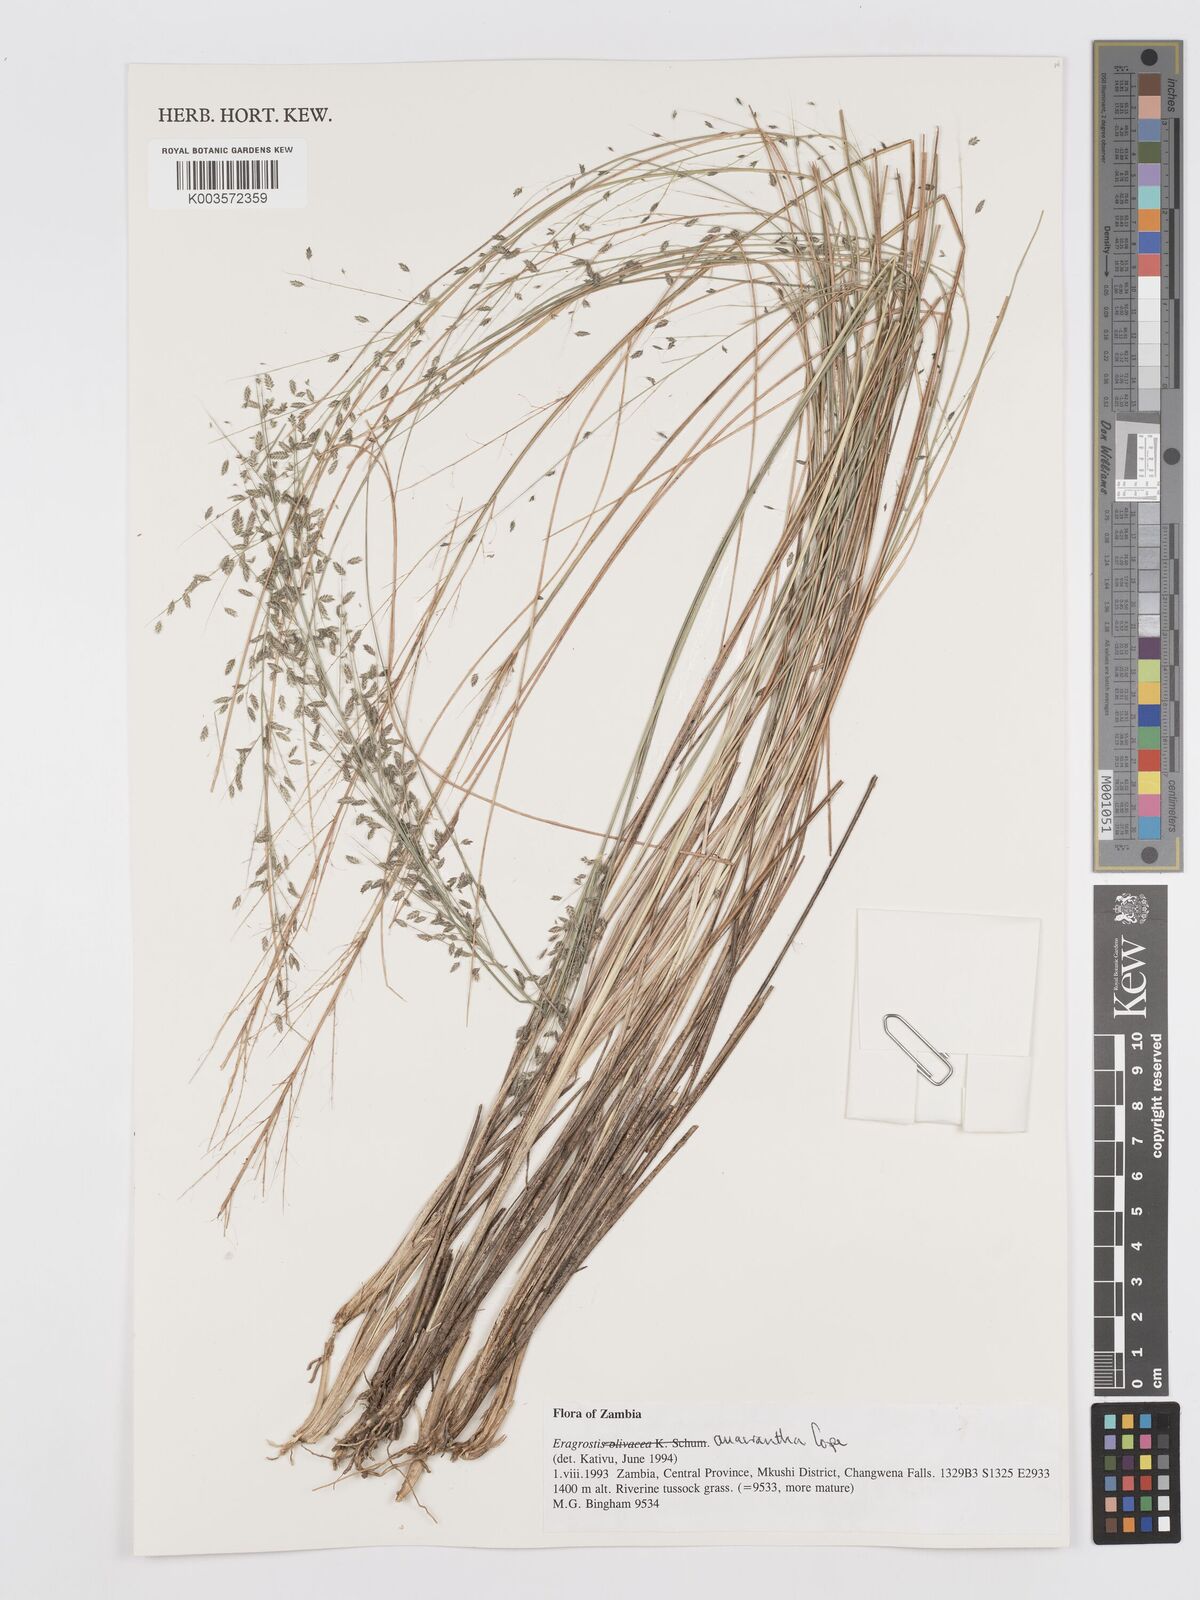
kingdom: Plantae
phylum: Tracheophyta
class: Liliopsida
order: Poales
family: Poaceae
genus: Eragrostis
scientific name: Eragrostis anacrantha
